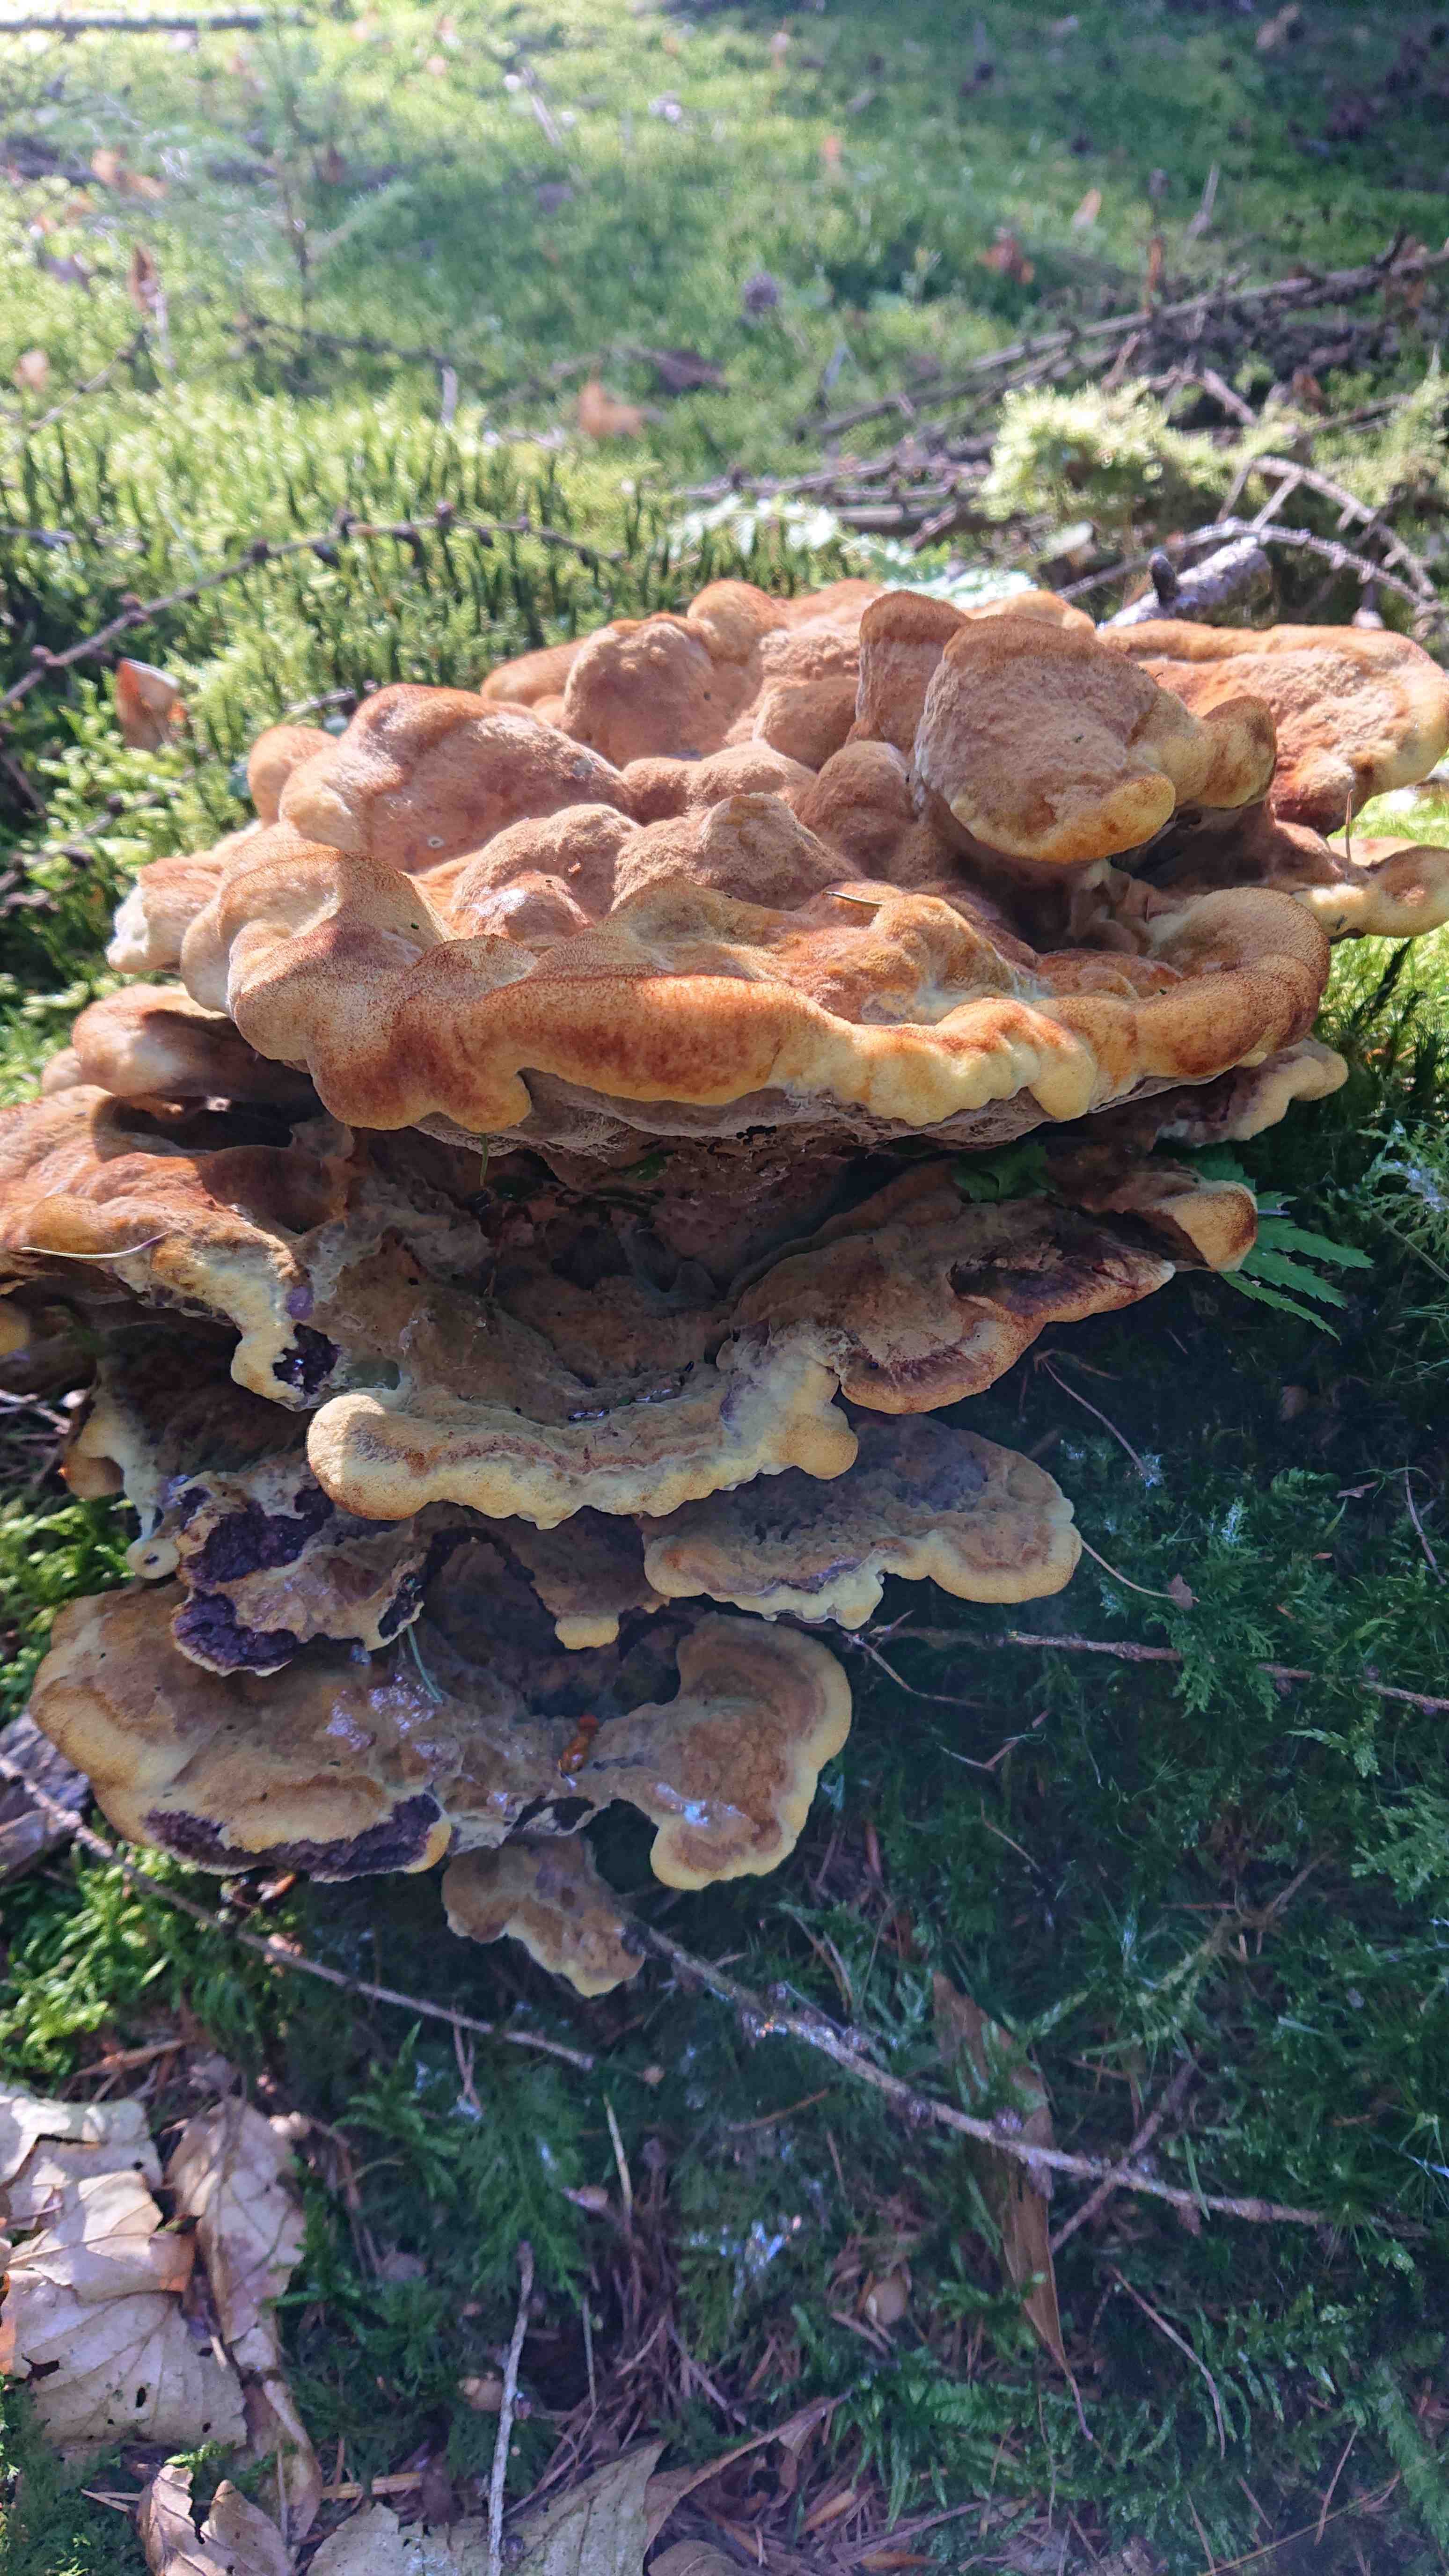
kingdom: Fungi
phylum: Basidiomycota
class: Agaricomycetes
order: Polyporales
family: Laetiporaceae
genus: Phaeolus
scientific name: Phaeolus schweinitzii
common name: brunporesvamp
